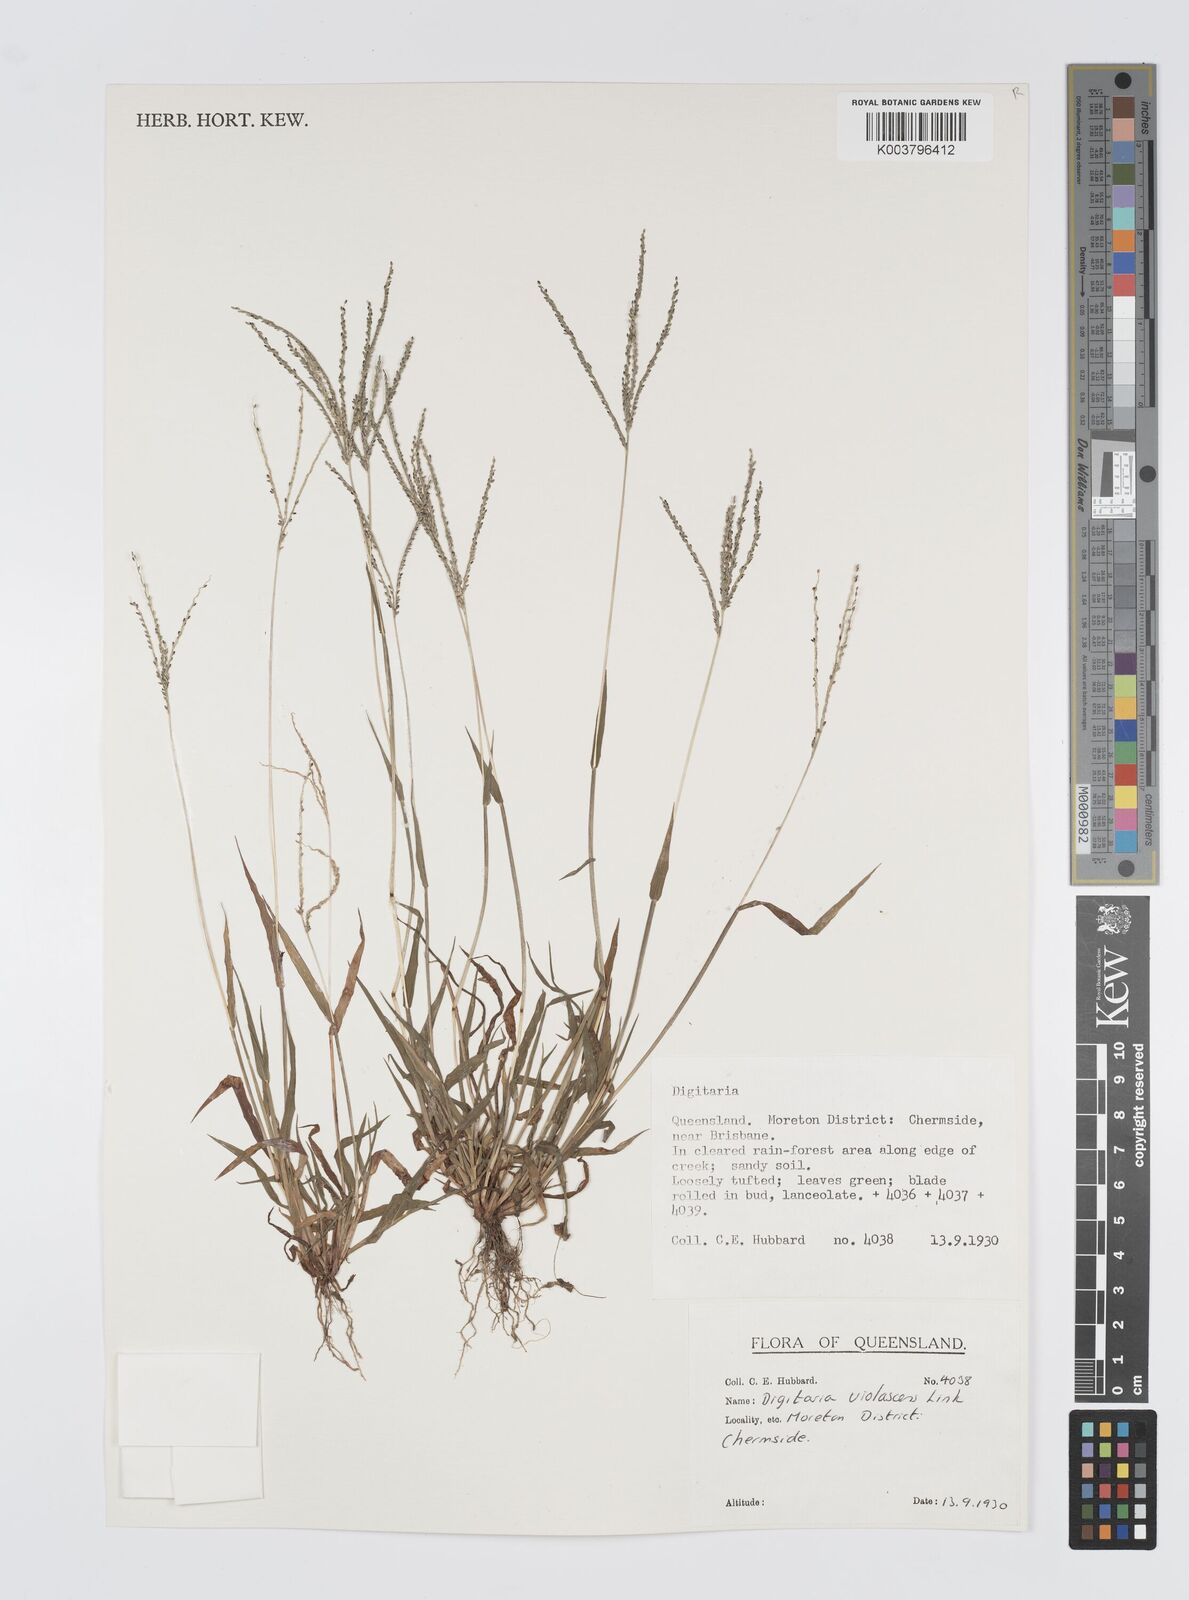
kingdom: Plantae
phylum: Tracheophyta
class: Liliopsida
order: Poales
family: Poaceae
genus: Digitaria
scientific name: Digitaria violascens
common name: Violet crabgrass
